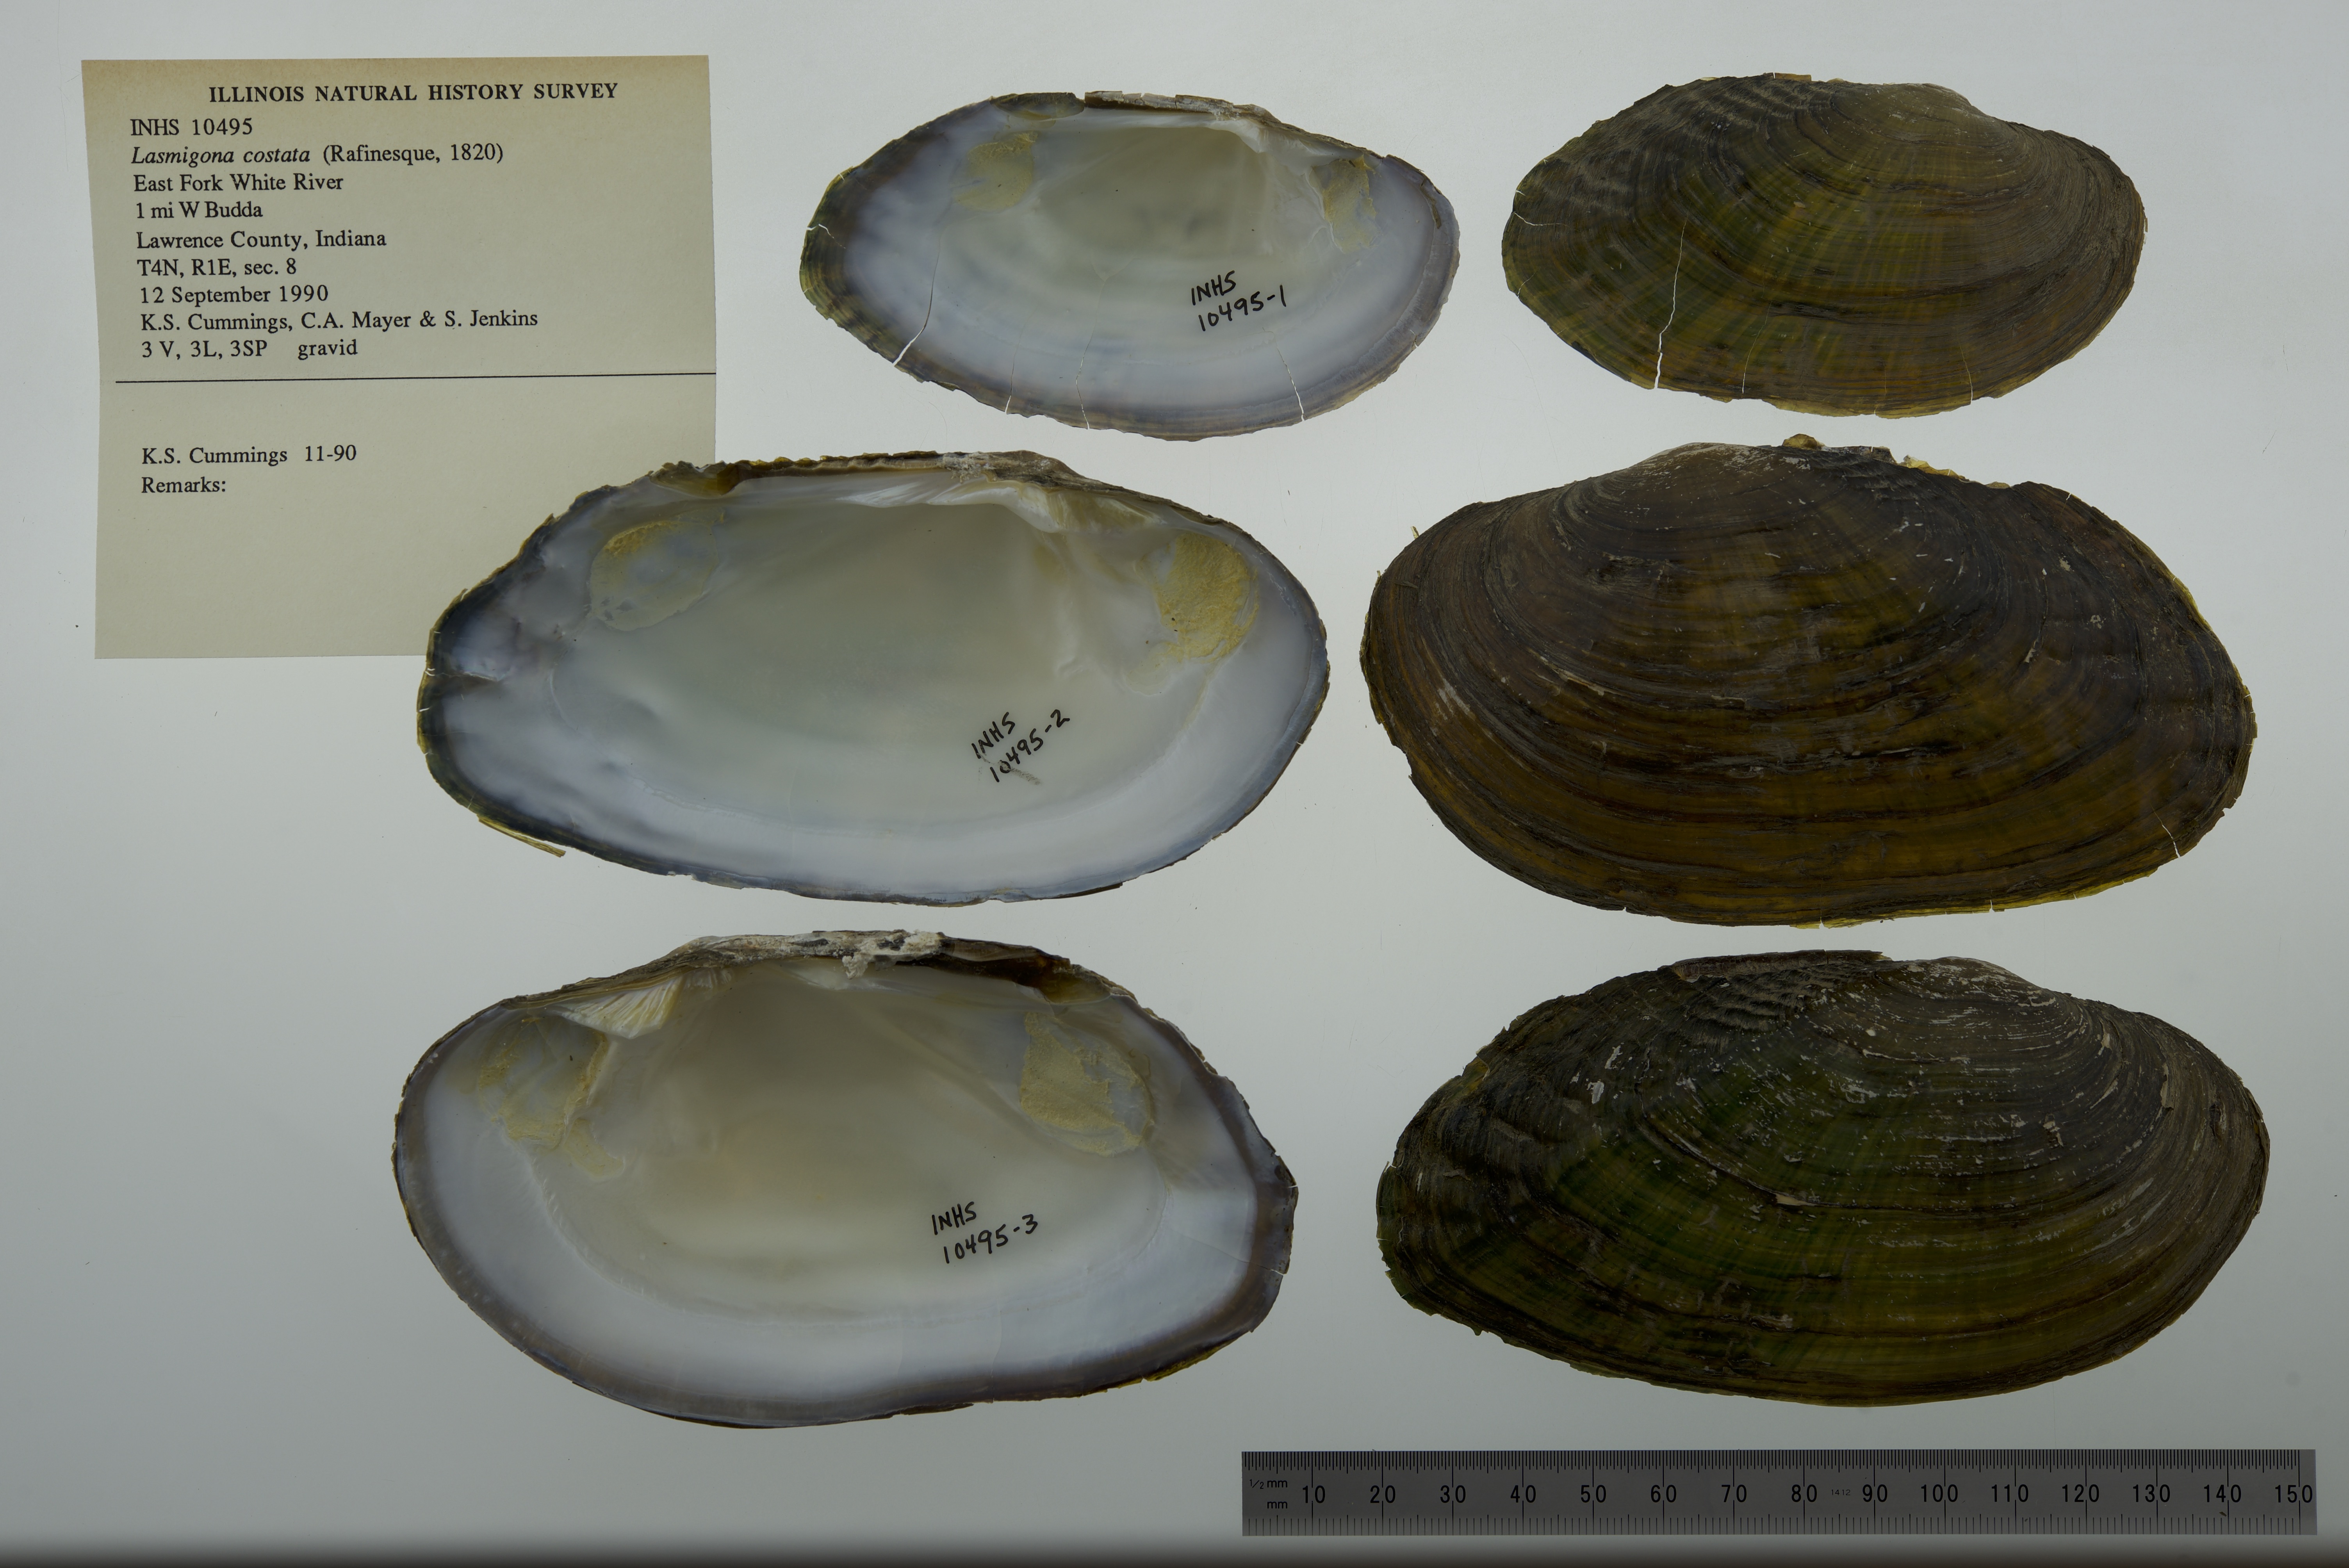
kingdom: Animalia
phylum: Mollusca
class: Bivalvia
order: Unionida
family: Unionidae
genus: Lasmigona
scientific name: Lasmigona costata
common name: Flutedshell
